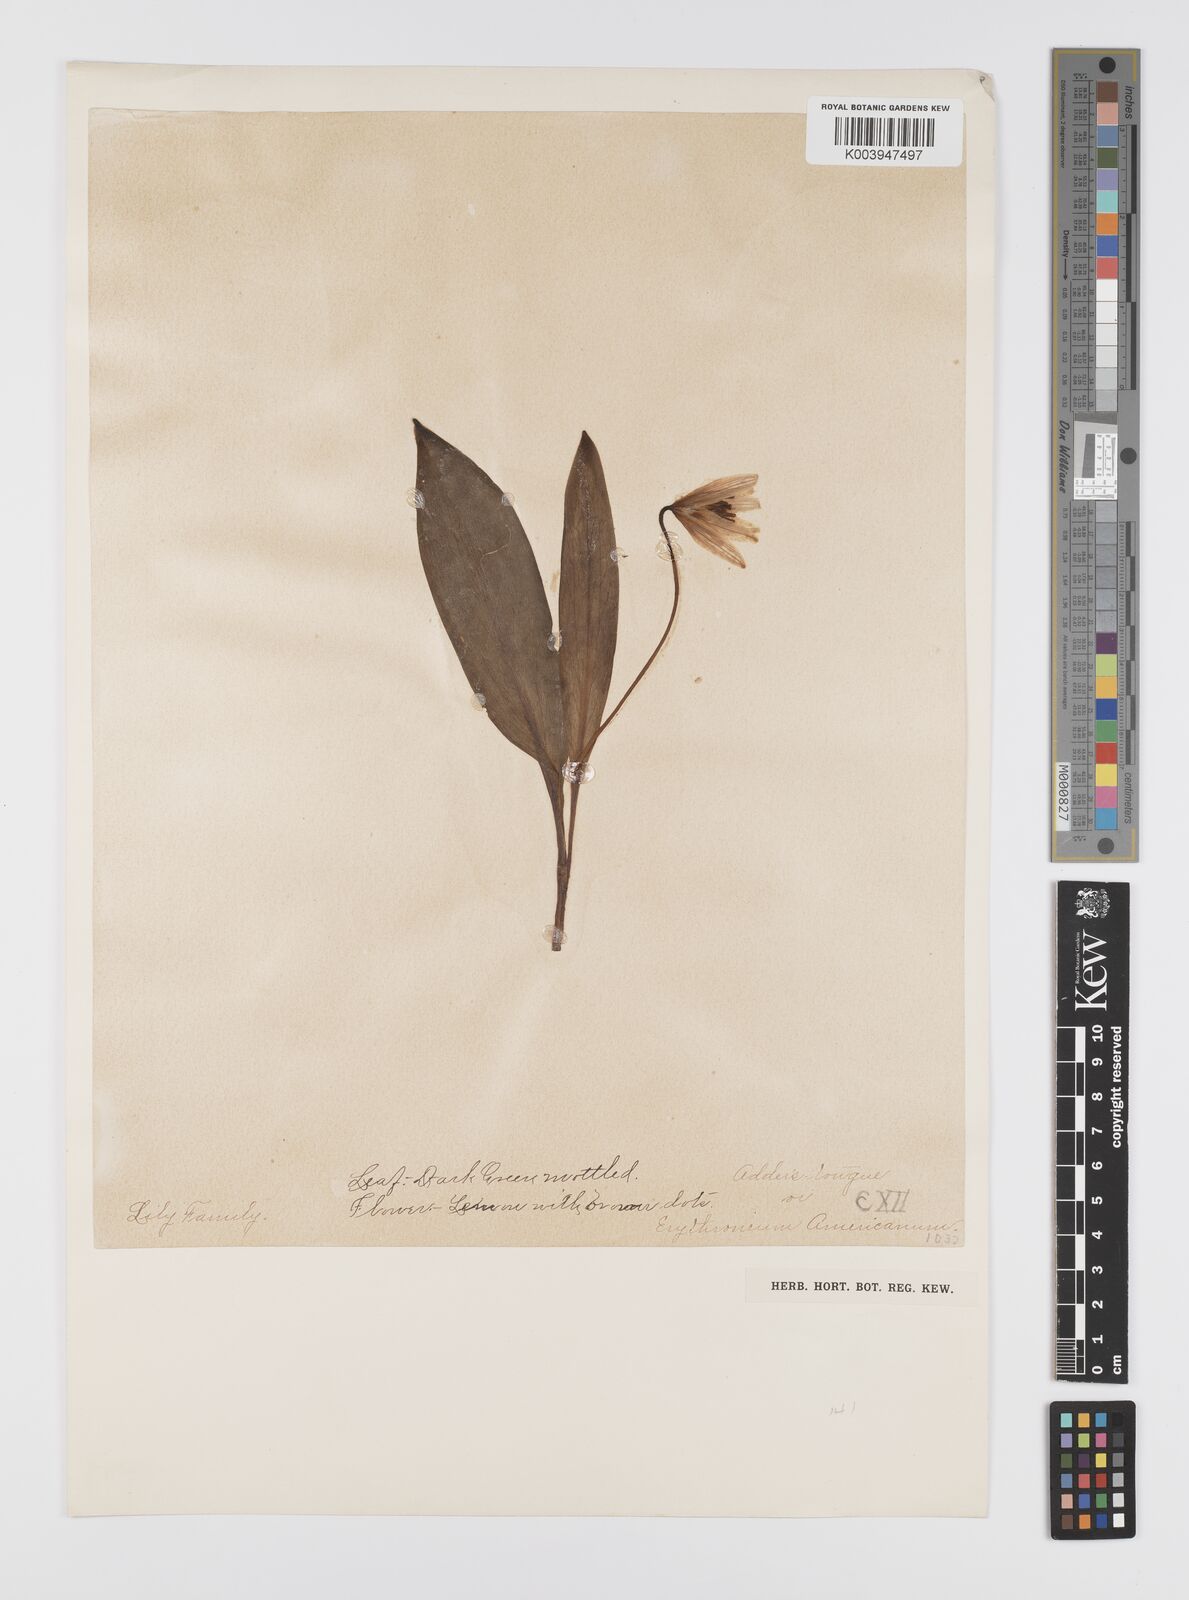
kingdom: Plantae
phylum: Tracheophyta
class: Liliopsida
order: Liliales
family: Liliaceae
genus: Erythronium
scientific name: Erythronium americanum
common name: Yellow adder's-tongue
